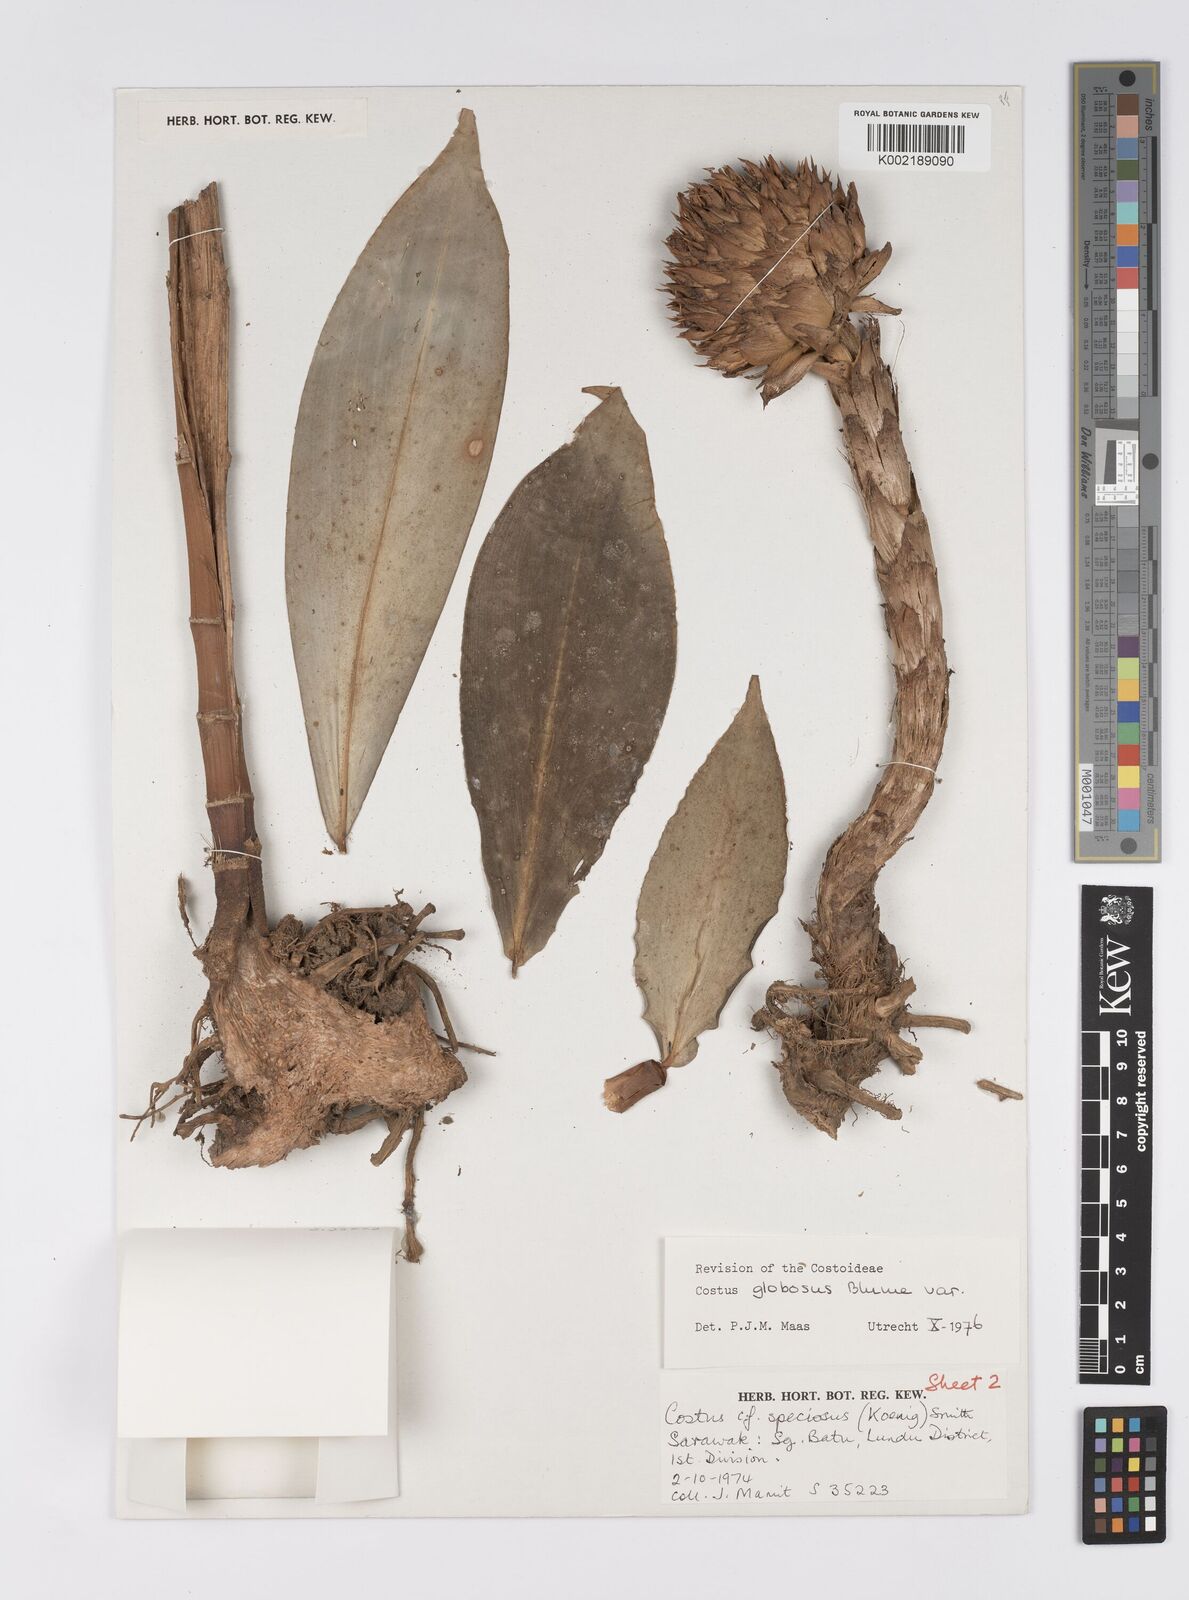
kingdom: Plantae
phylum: Tracheophyta
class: Liliopsida
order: Zingiberales
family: Costaceae
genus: Hellenia
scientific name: Hellenia globosa
